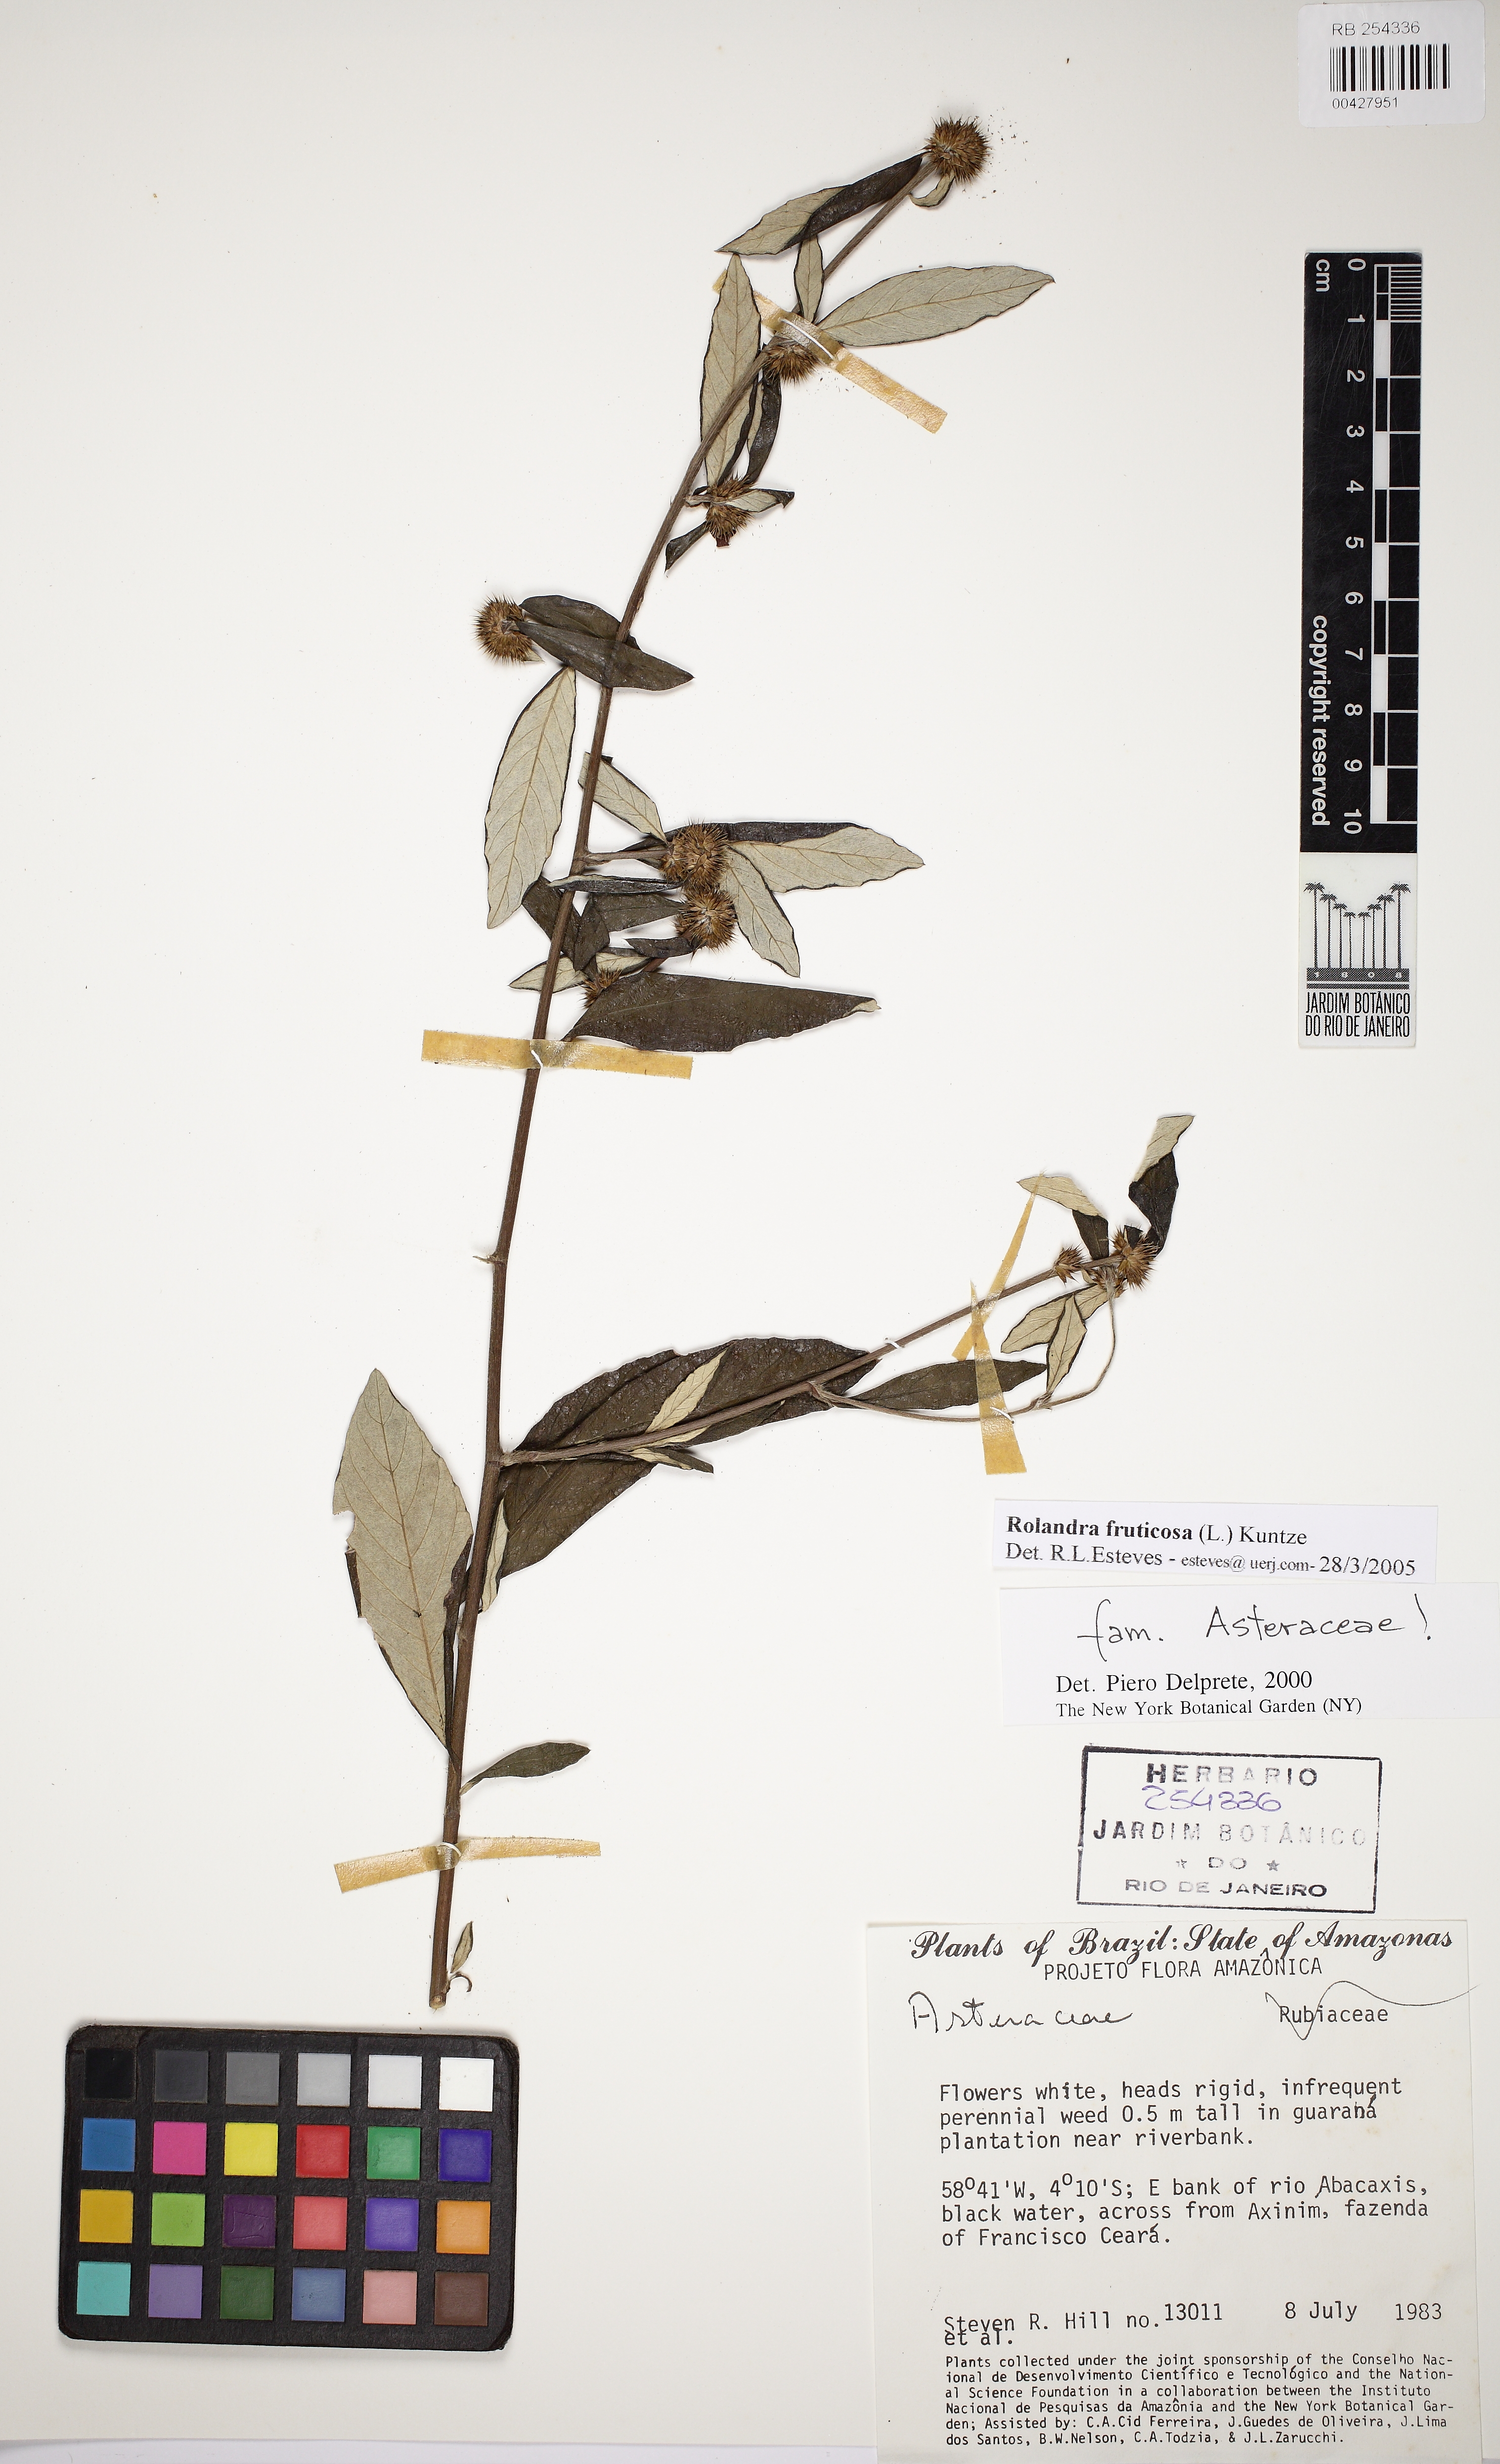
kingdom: Plantae
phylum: Tracheophyta
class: Magnoliopsida
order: Asterales
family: Asteraceae
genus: Rolandra
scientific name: Rolandra fruticosa
